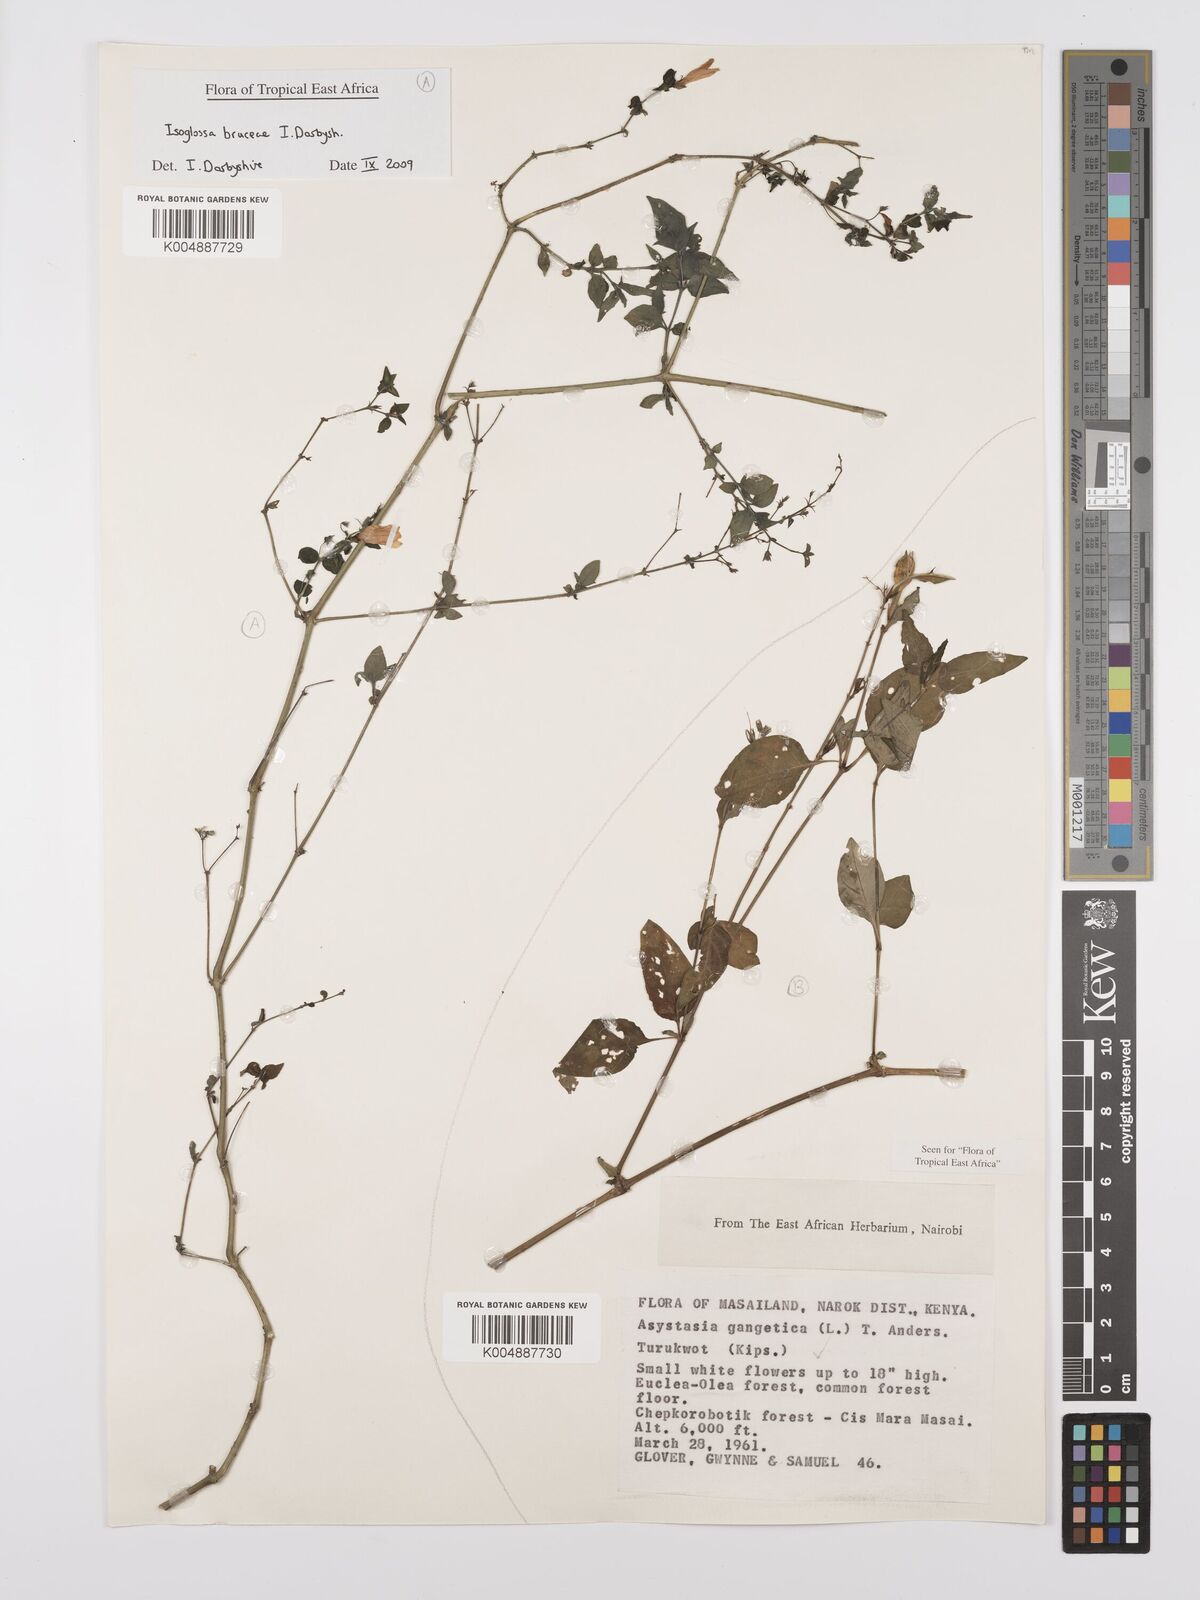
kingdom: Plantae
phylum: Tracheophyta
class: Magnoliopsida
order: Lamiales
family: Acanthaceae
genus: Asystasia
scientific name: Asystasia gangetica
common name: Chinese violet
